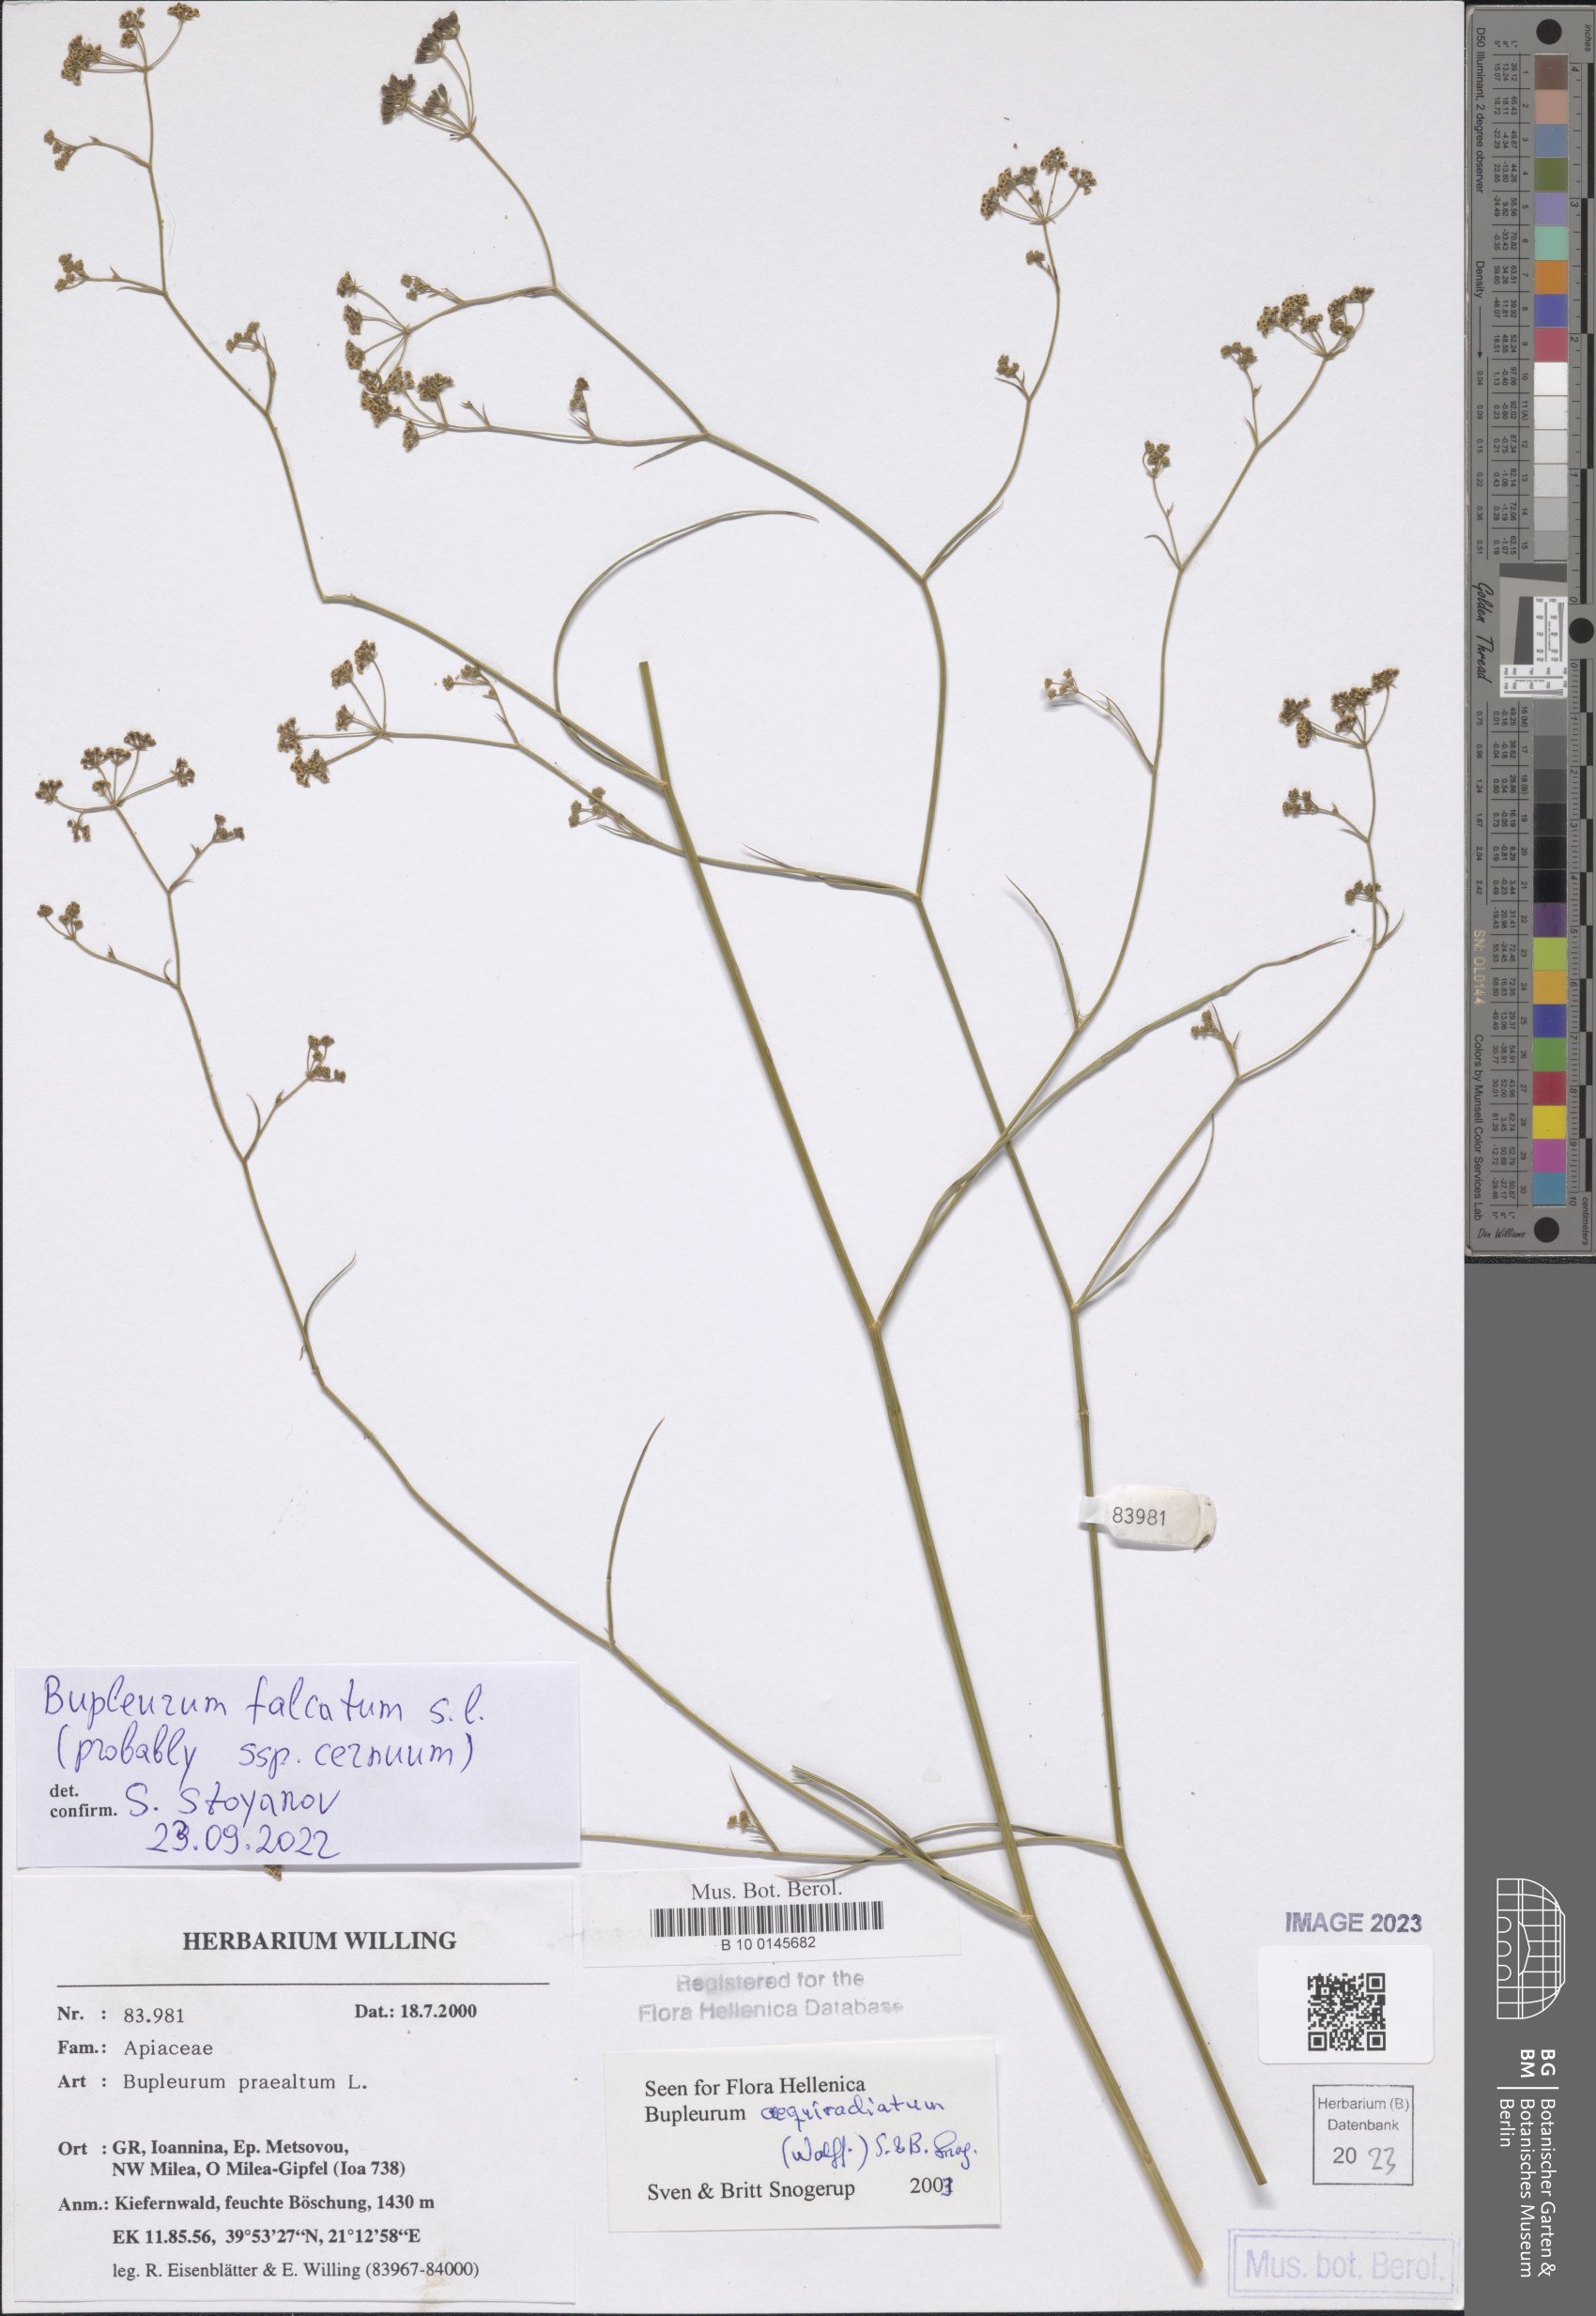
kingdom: Plantae
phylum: Tracheophyta
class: Magnoliopsida
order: Apiales
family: Apiaceae
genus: Bupleurum
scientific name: Bupleurum falcatum
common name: Sickle-leaved hare's-ear
